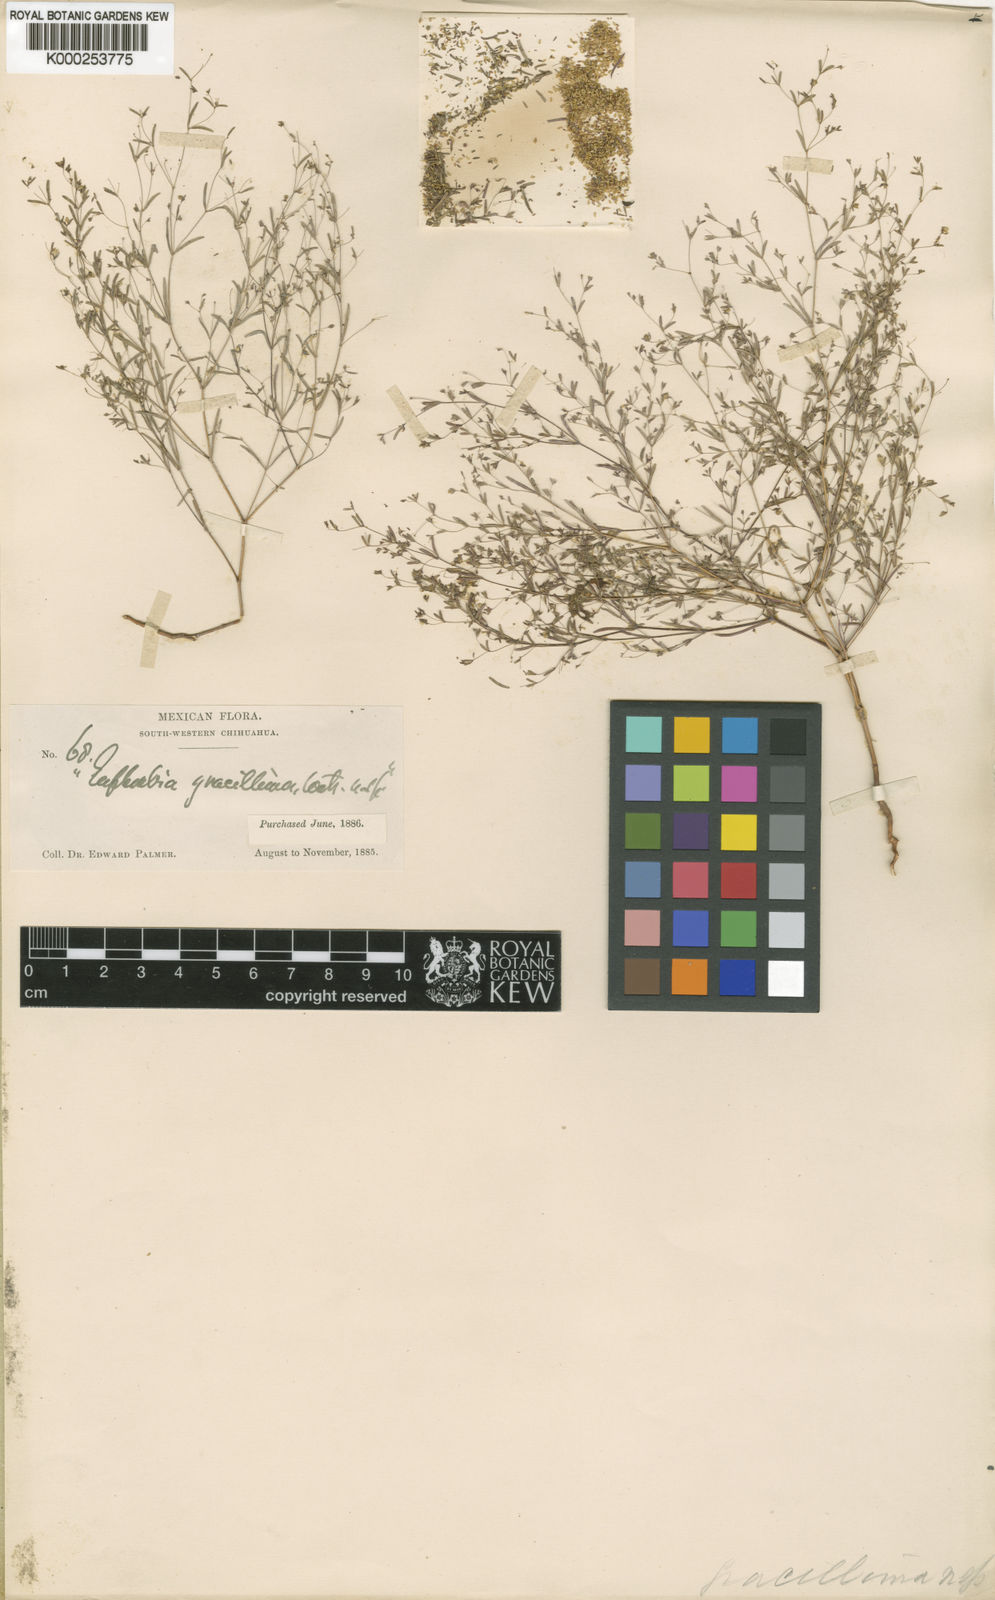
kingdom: Plantae
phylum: Tracheophyta
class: Magnoliopsida
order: Malpighiales
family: Euphorbiaceae
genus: Euphorbia
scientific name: Euphorbia gracillima
